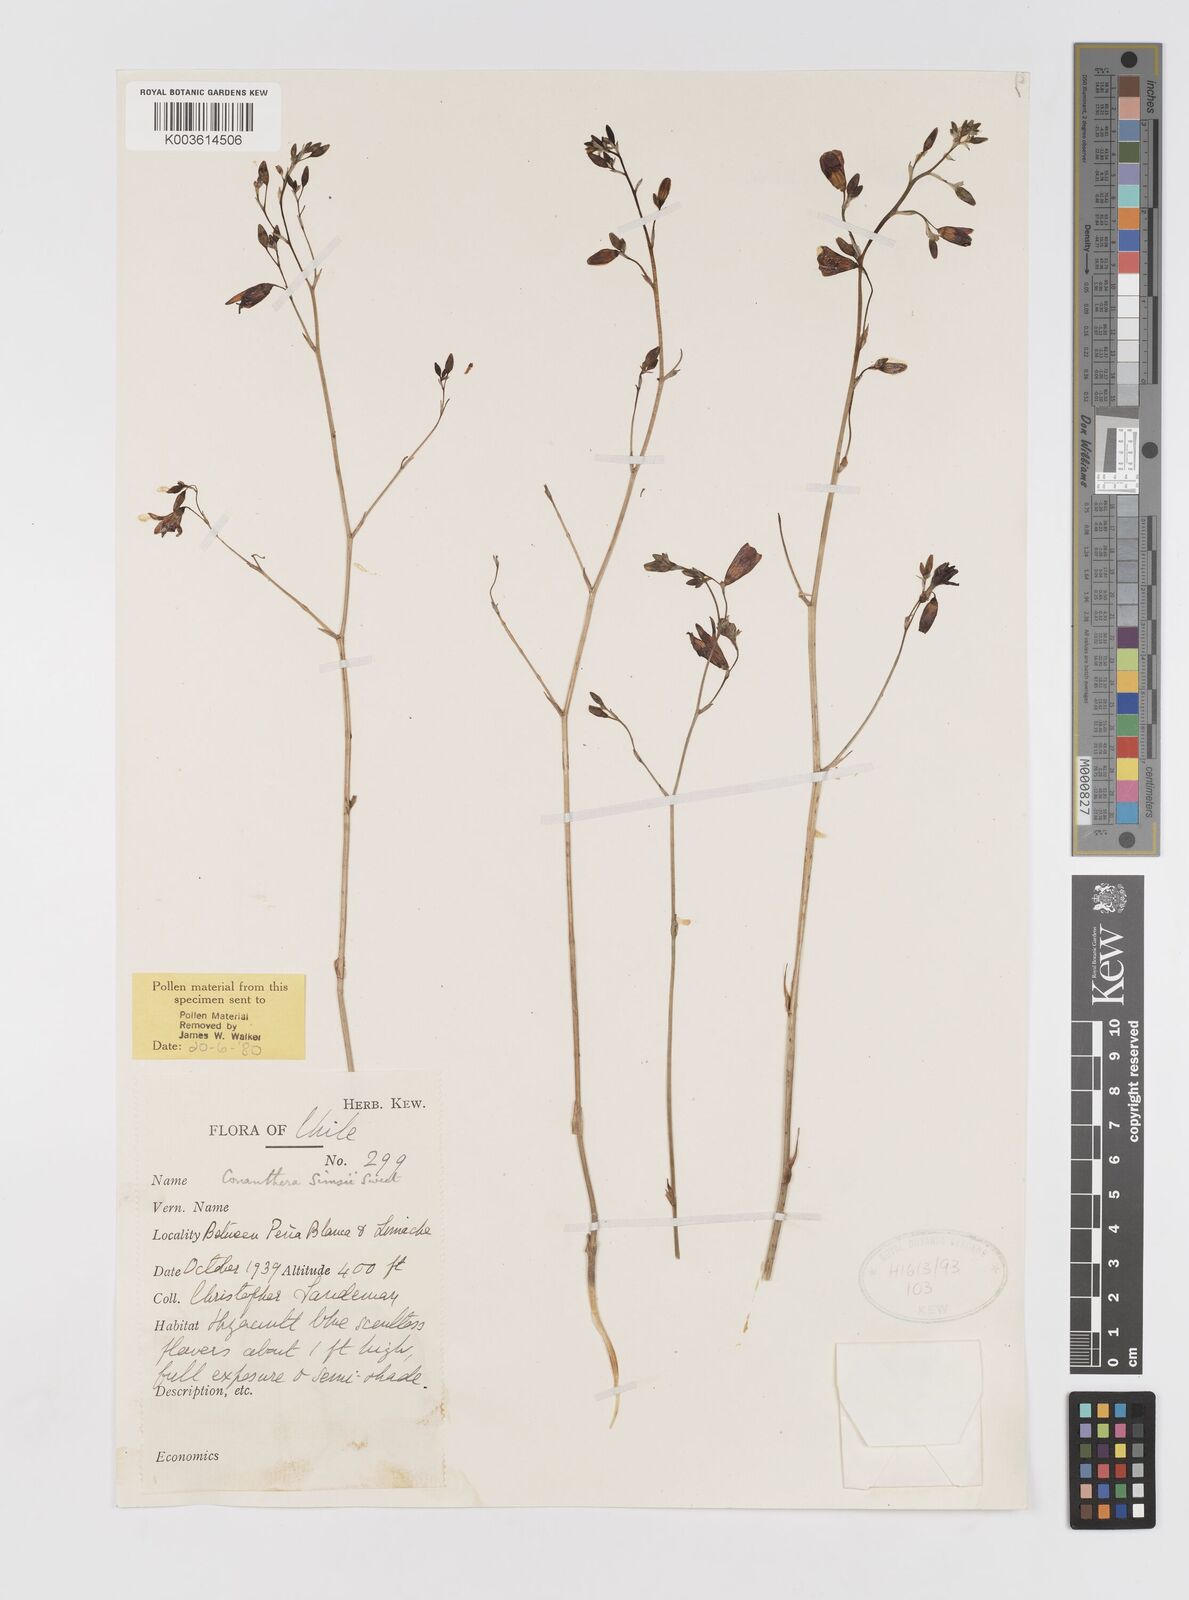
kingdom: Plantae
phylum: Tracheophyta
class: Liliopsida
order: Asparagales
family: Tecophilaeaceae
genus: Conanthera
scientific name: Conanthera campanulata
